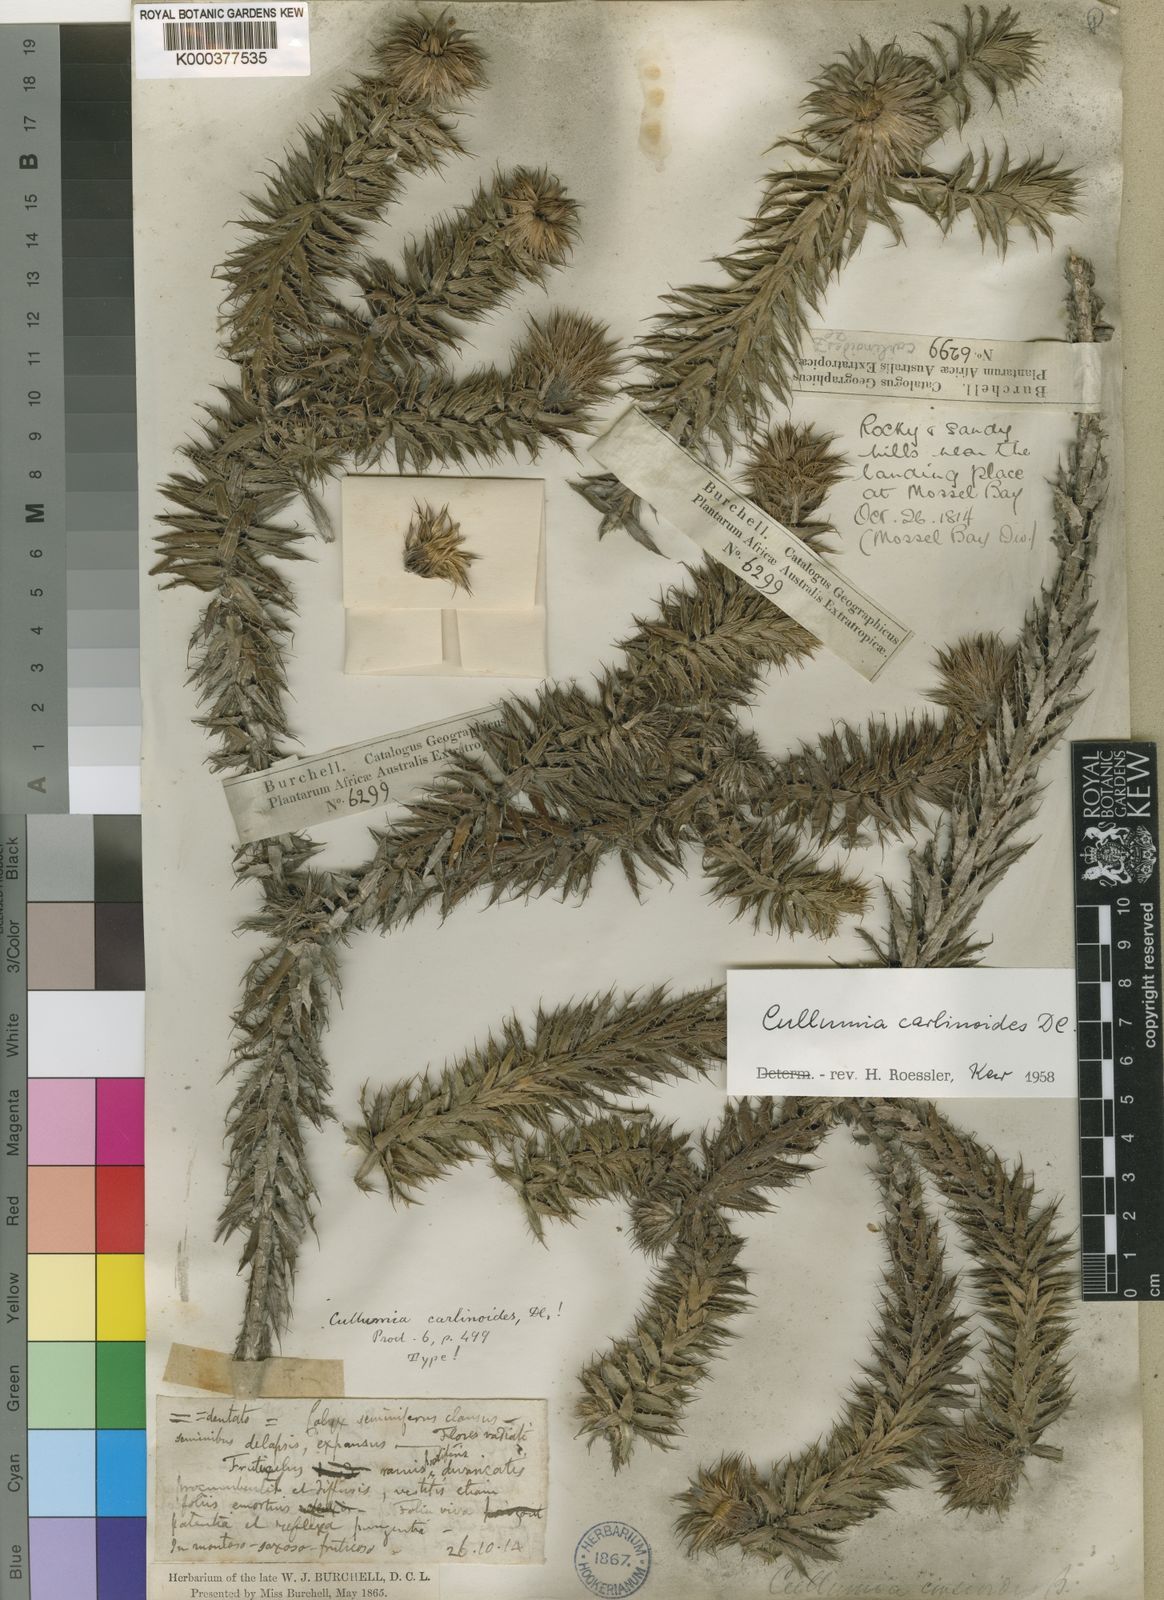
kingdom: Plantae
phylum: Tracheophyta
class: Magnoliopsida
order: Asterales
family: Asteraceae
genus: Cullumia
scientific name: Cullumia carlinoides
